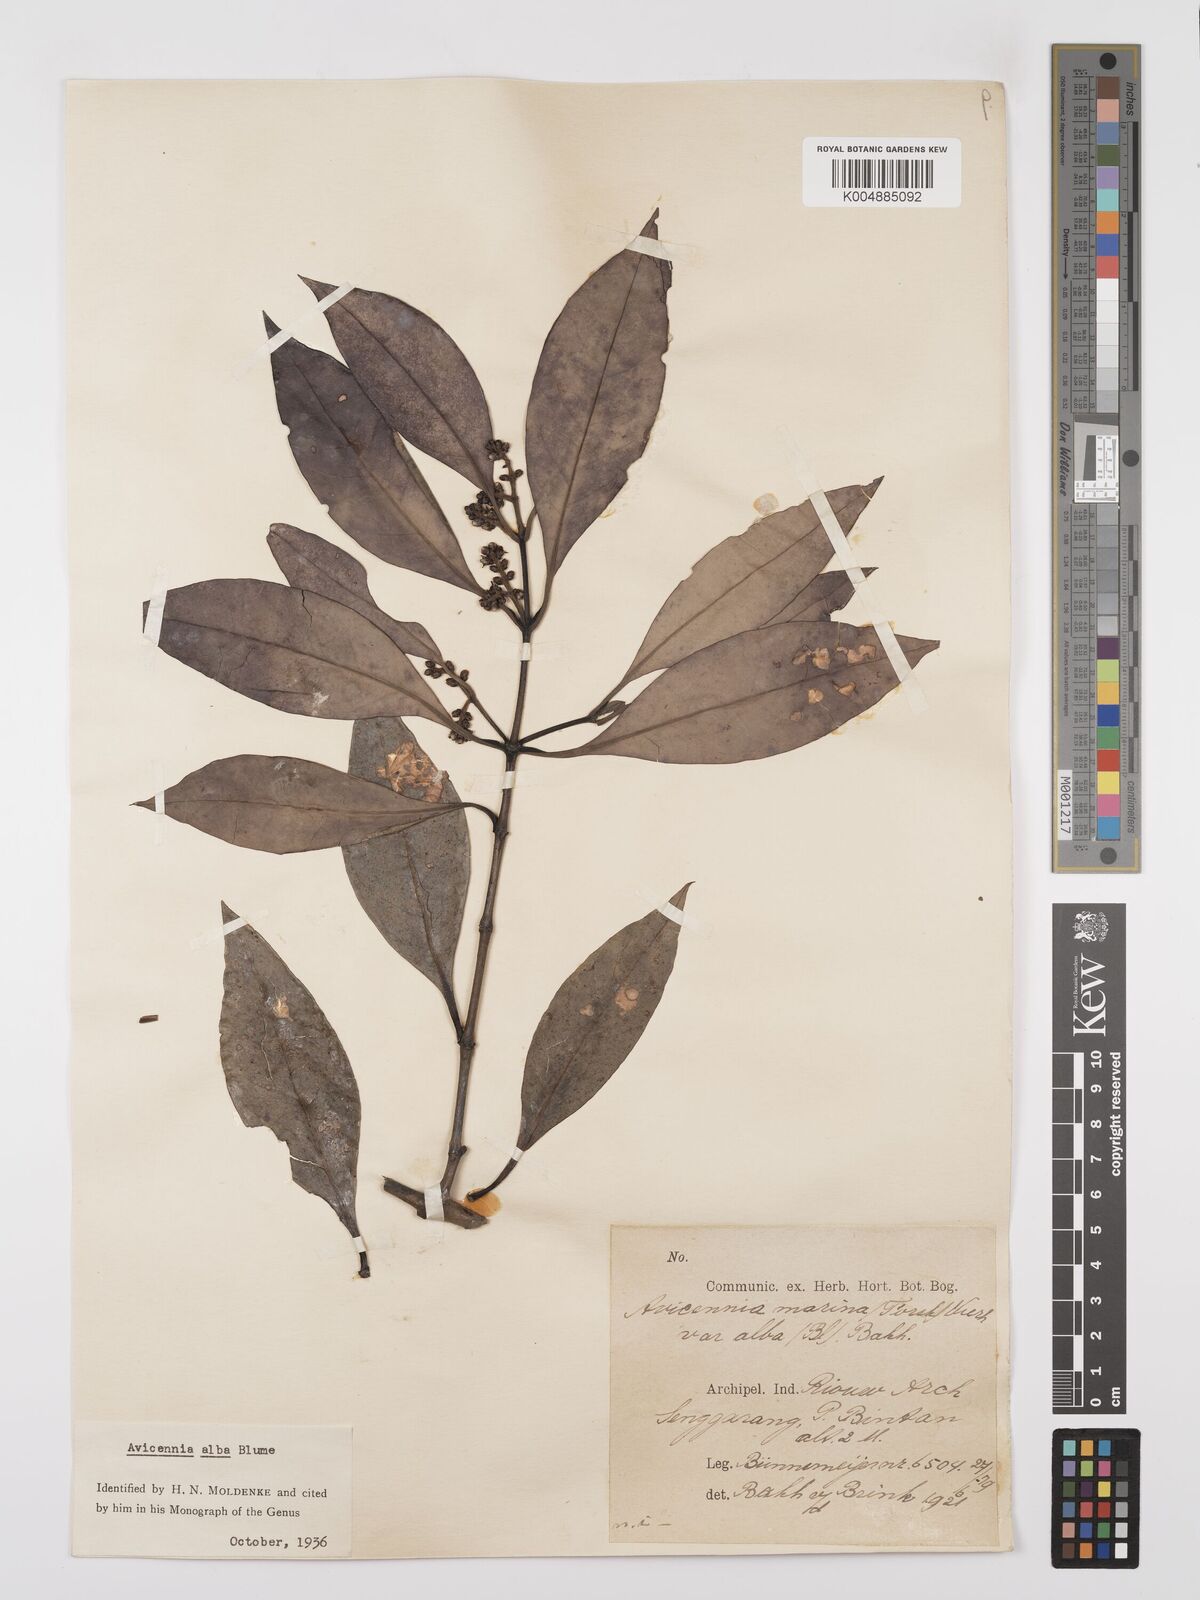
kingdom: Plantae
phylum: Tracheophyta
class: Magnoliopsida
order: Lamiales
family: Acanthaceae
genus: Avicennia
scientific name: Avicennia alba
